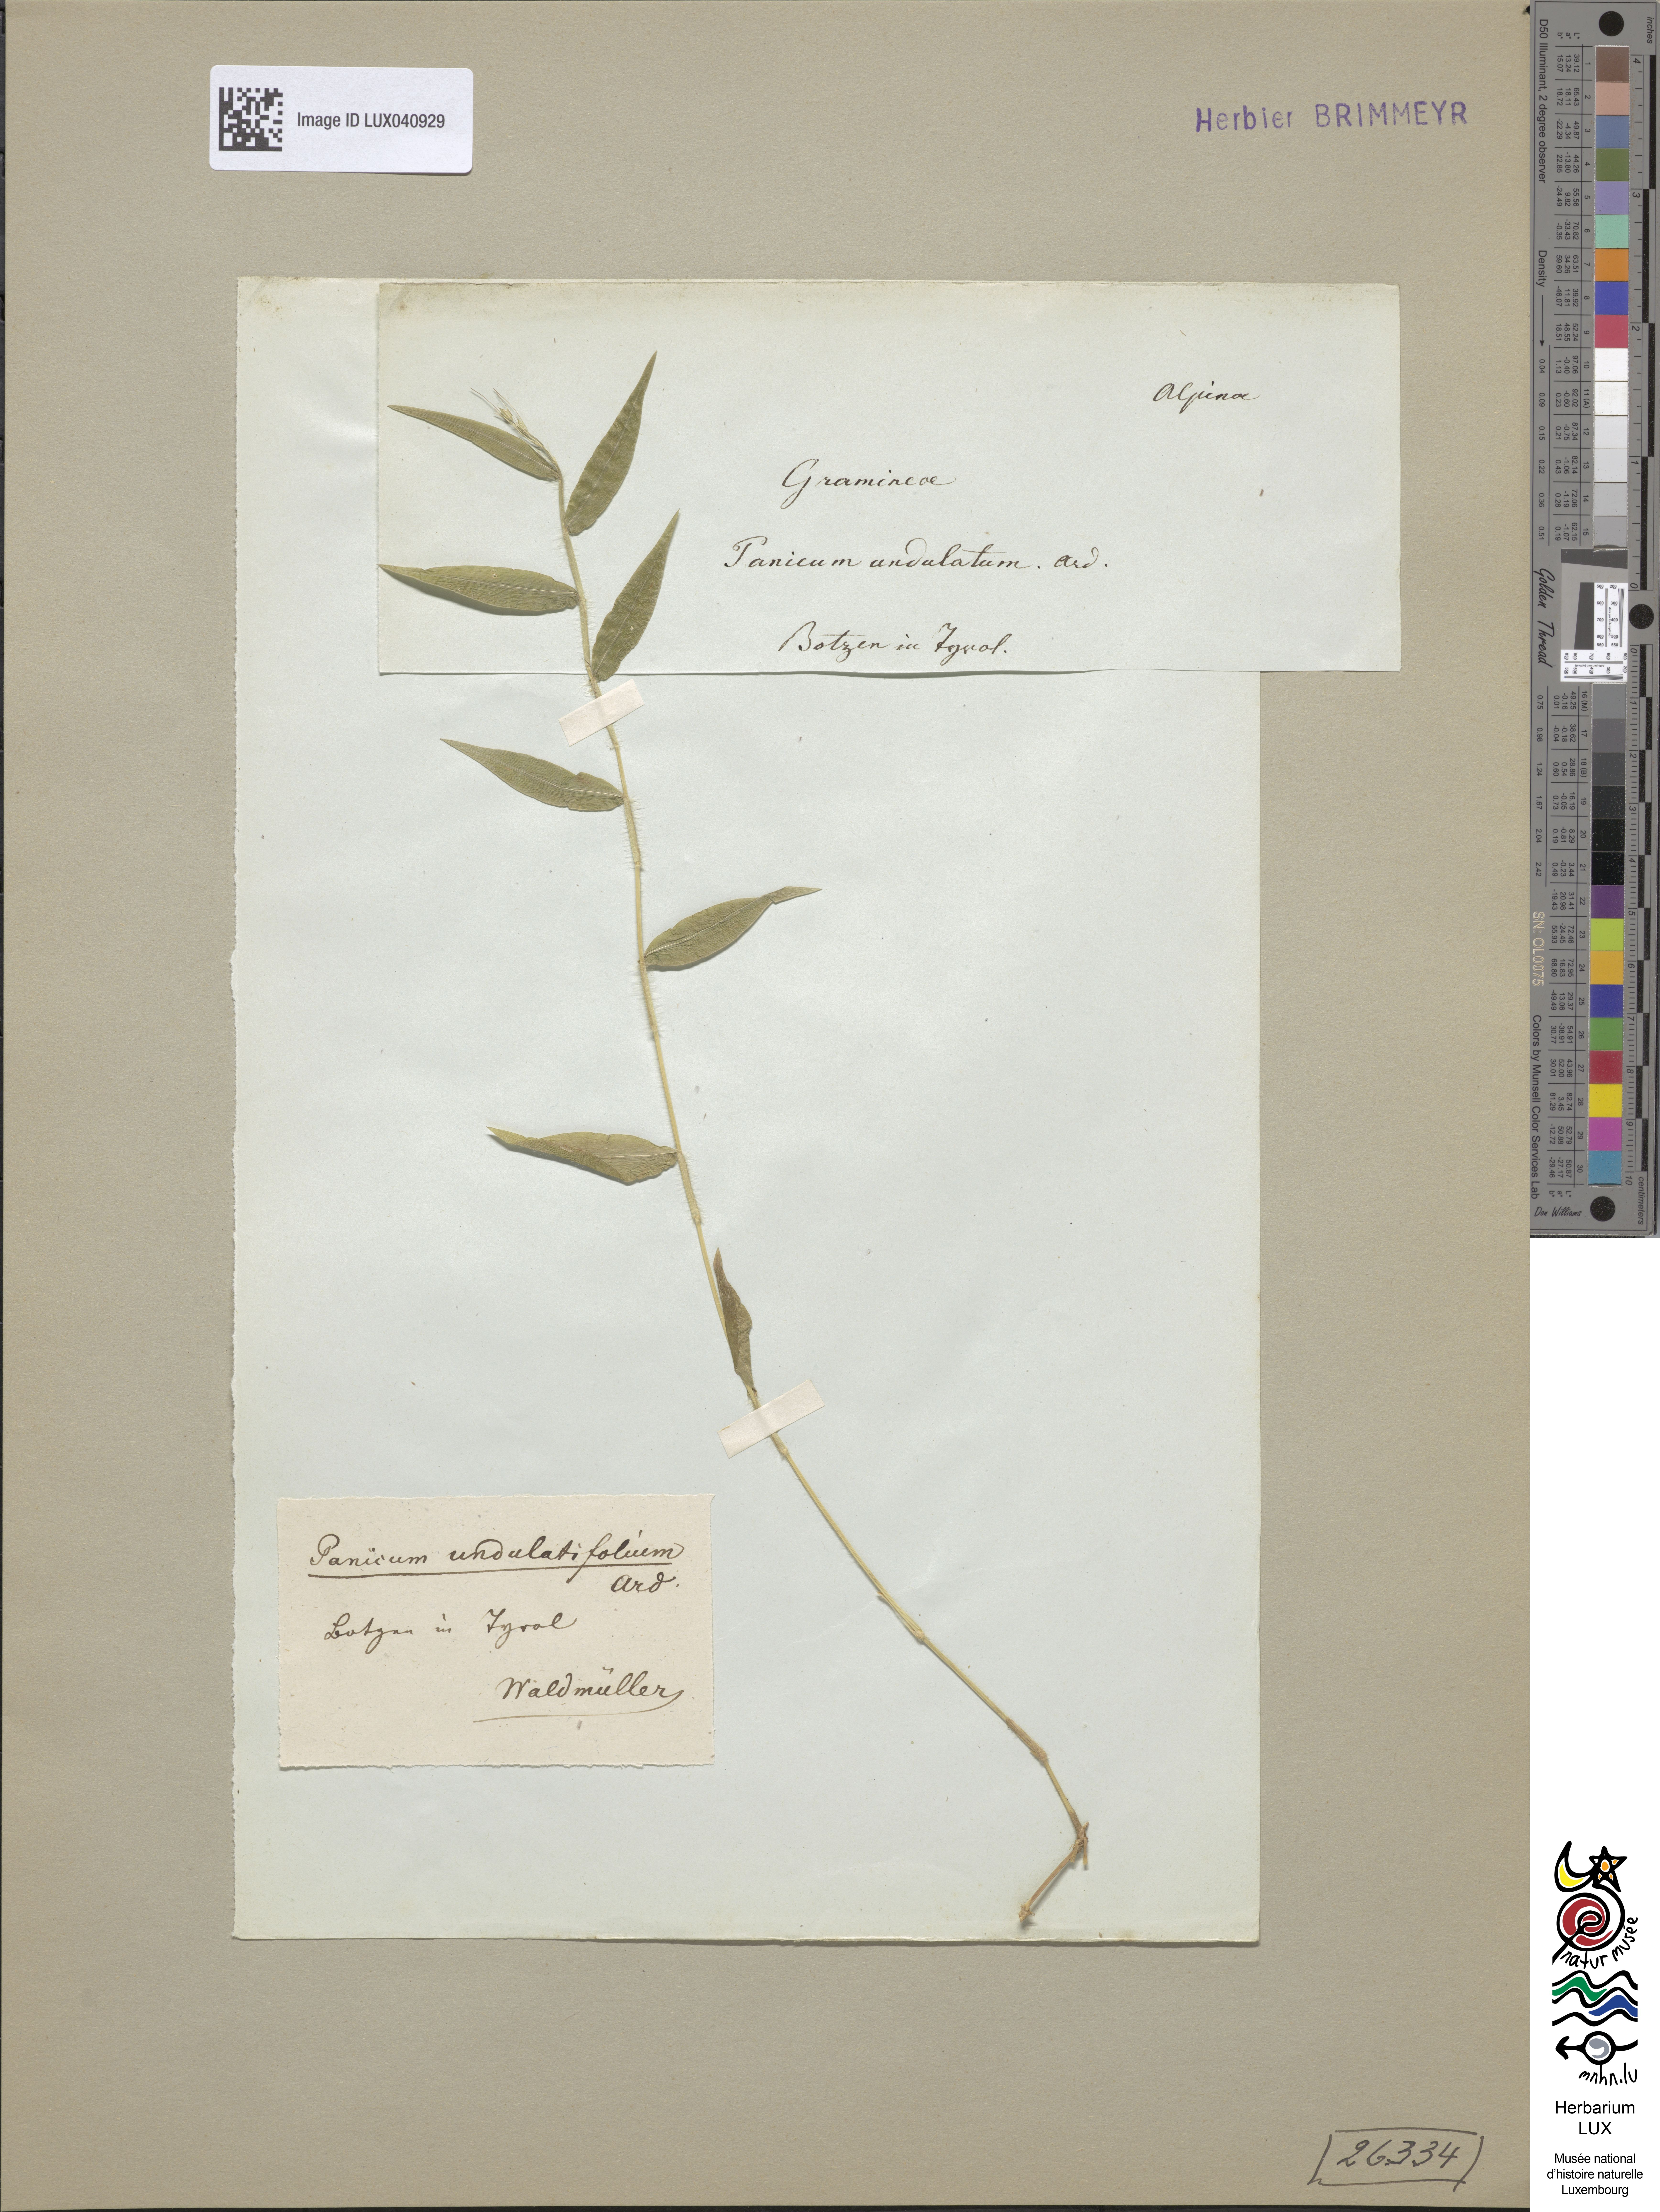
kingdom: Plantae
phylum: Tracheophyta
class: Liliopsida
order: Poales
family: Poaceae
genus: Oplismenus
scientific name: Oplismenus undulatifolius
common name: Wavyleaf basketgrass
